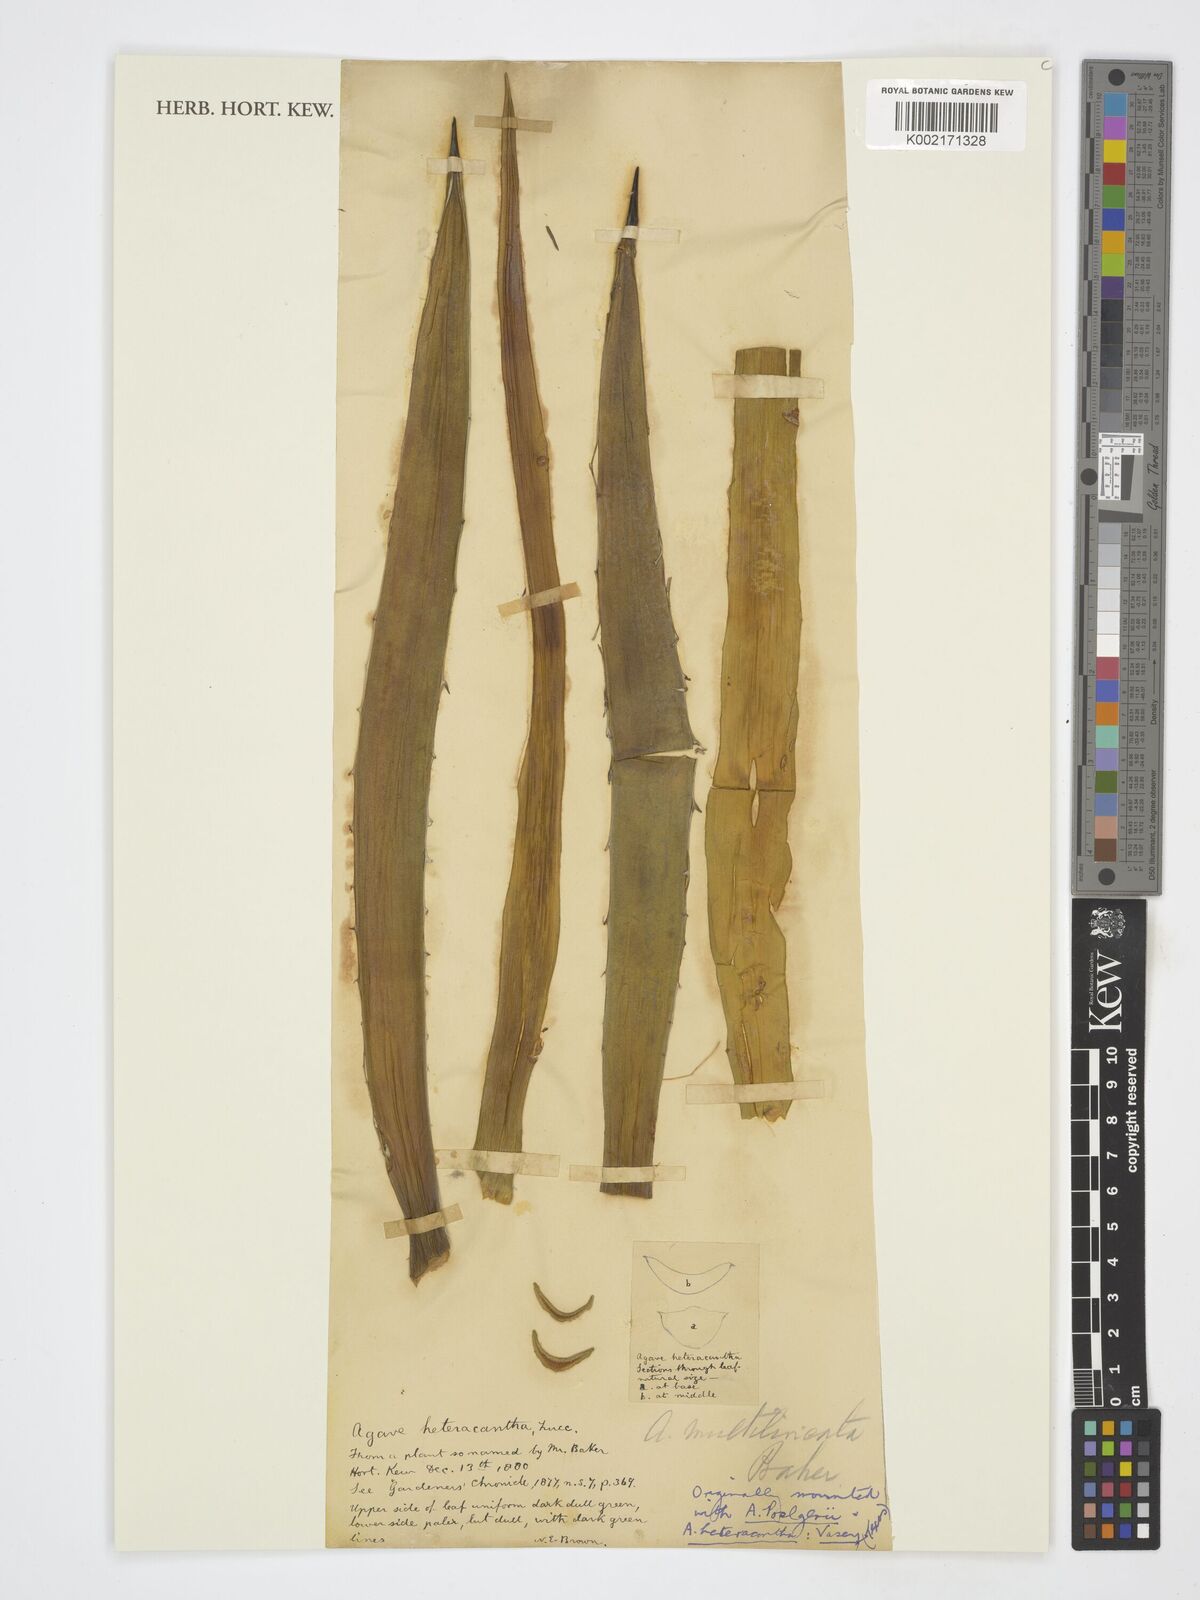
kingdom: Plantae
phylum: Tracheophyta
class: Liliopsida
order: Asparagales
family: Asparagaceae
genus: Agave
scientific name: Agave lophantha
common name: Lechuguilla
